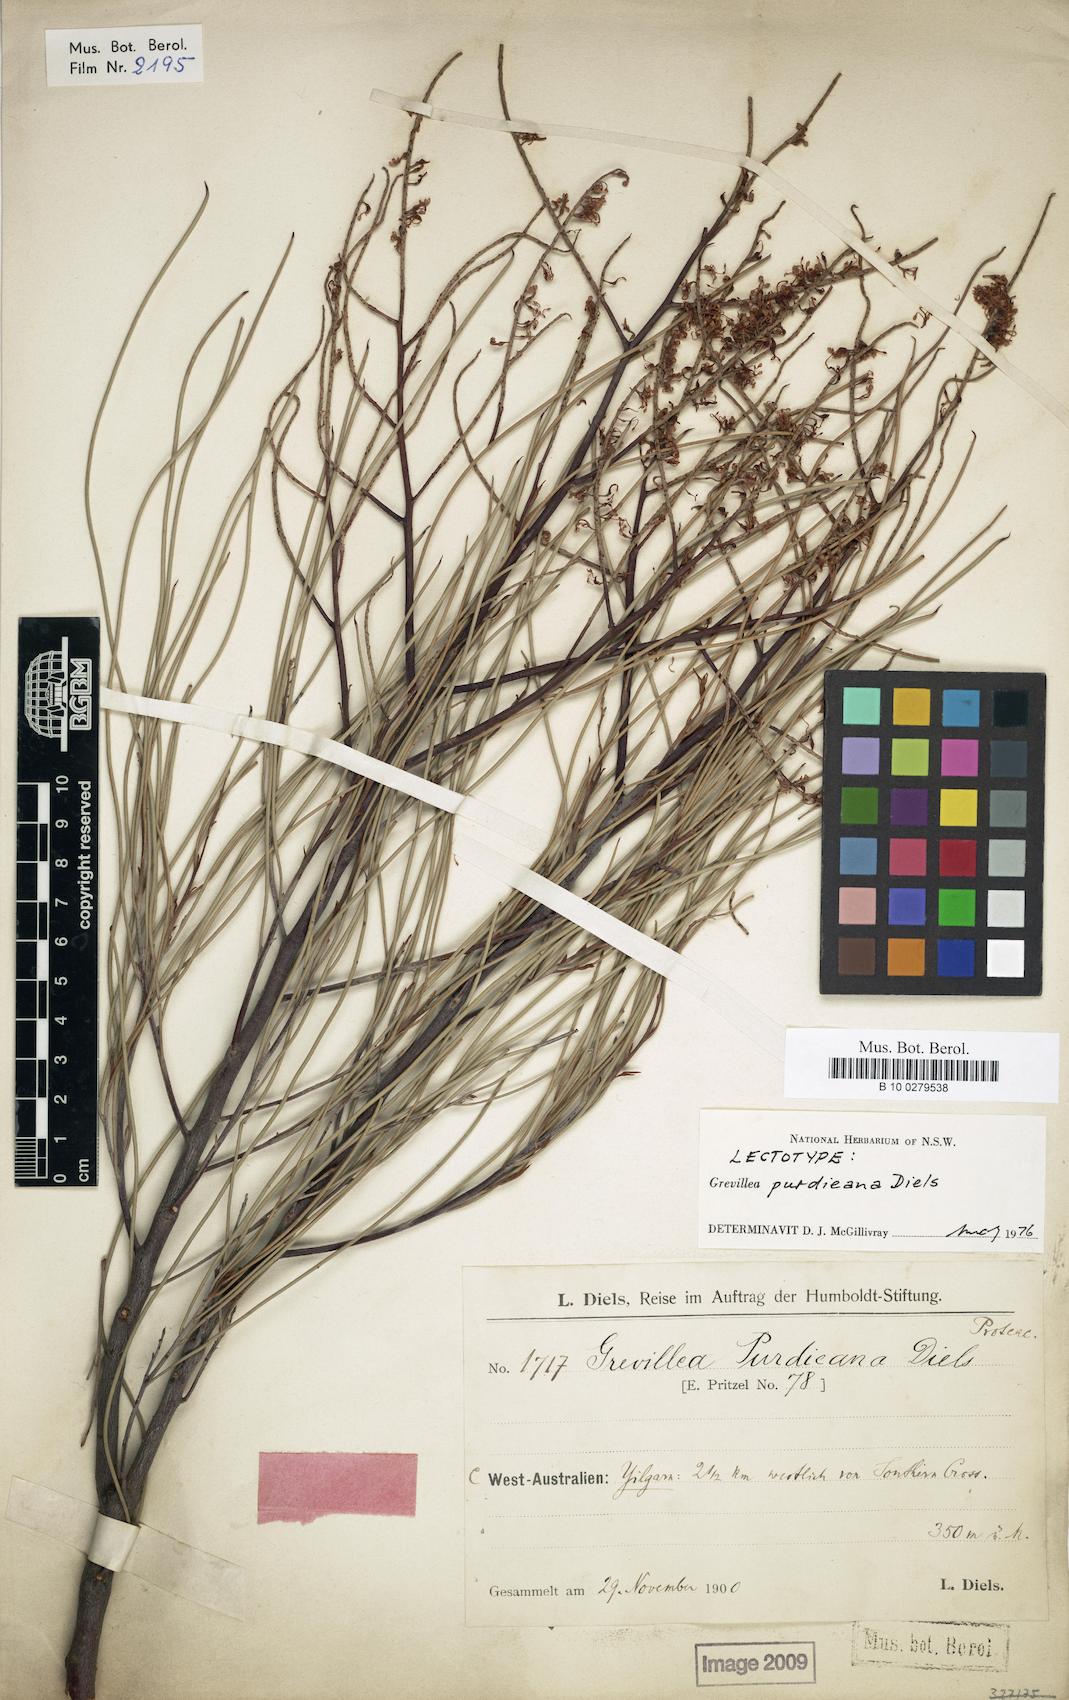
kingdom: Plantae
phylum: Tracheophyta
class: Magnoliopsida
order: Proteales
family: Proteaceae
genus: Grevillea
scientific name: Grevillea nematophylla
